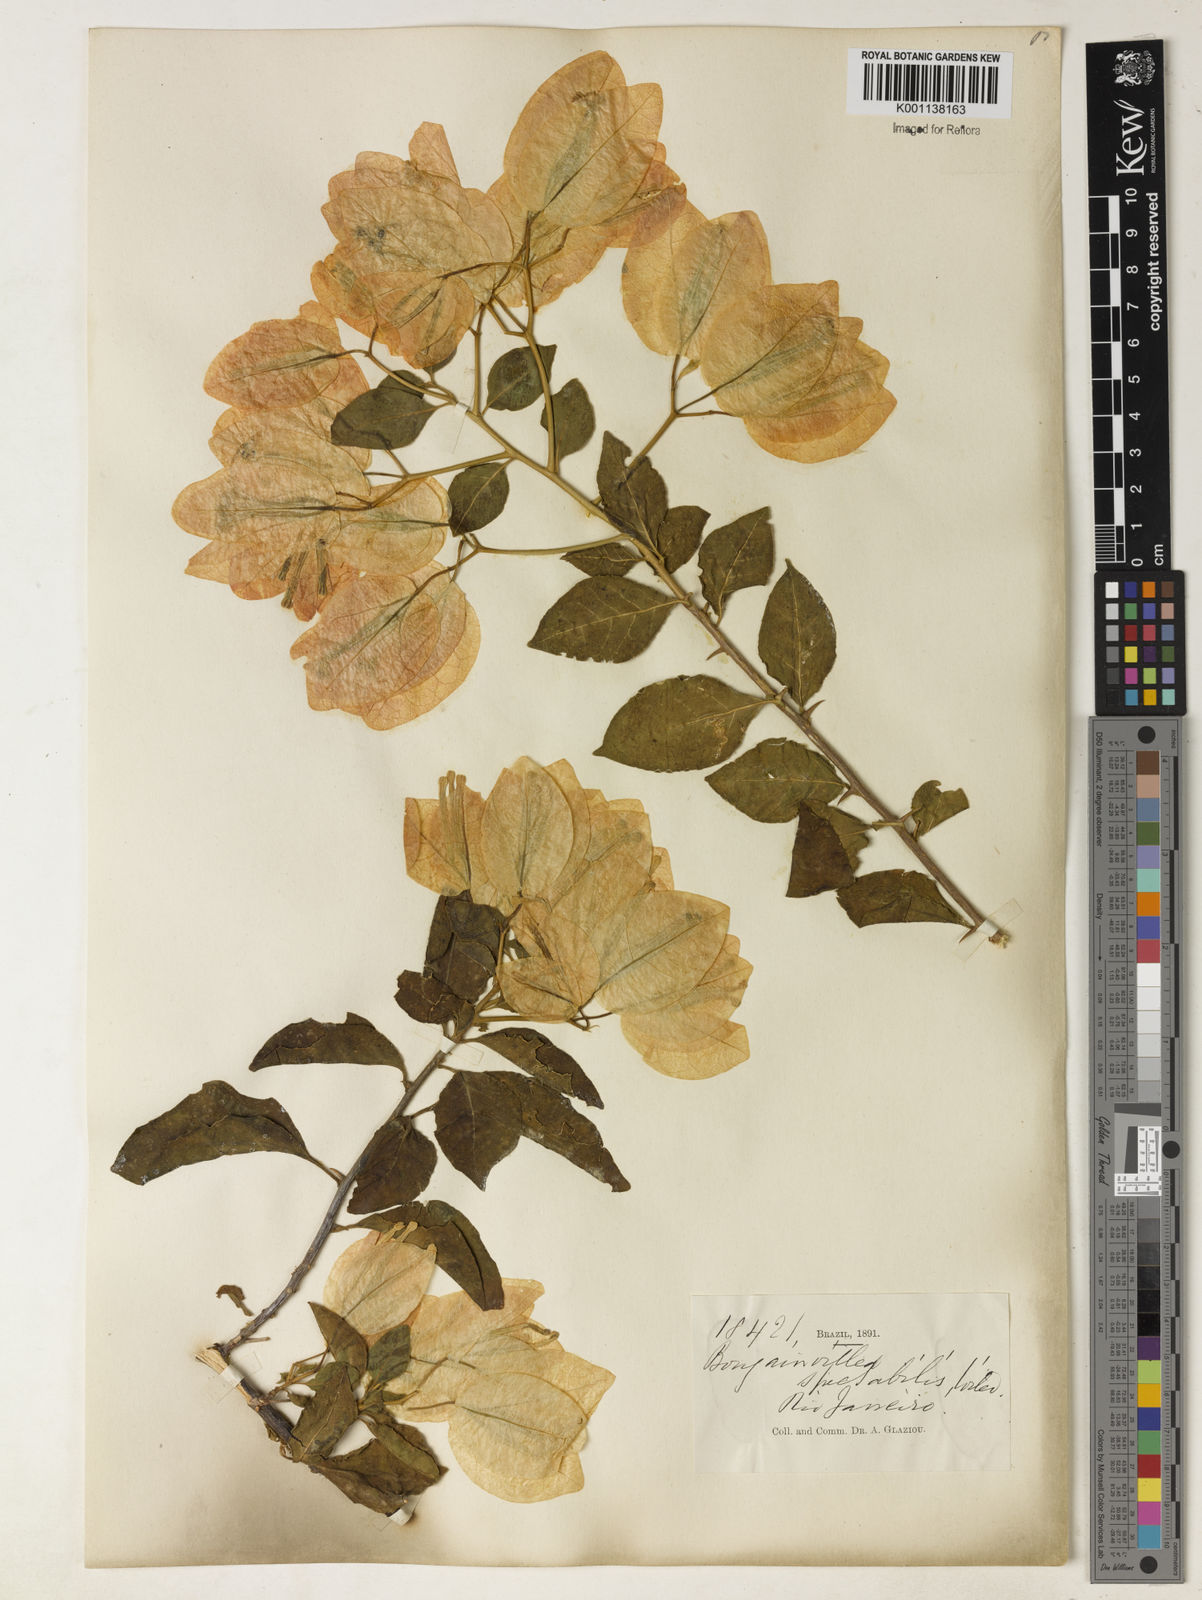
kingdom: Plantae
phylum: Tracheophyta
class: Magnoliopsida
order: Caryophyllales
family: Nyctaginaceae
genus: Bougainvillea
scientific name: Bougainvillea spectabilis
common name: Great bougainvillea
